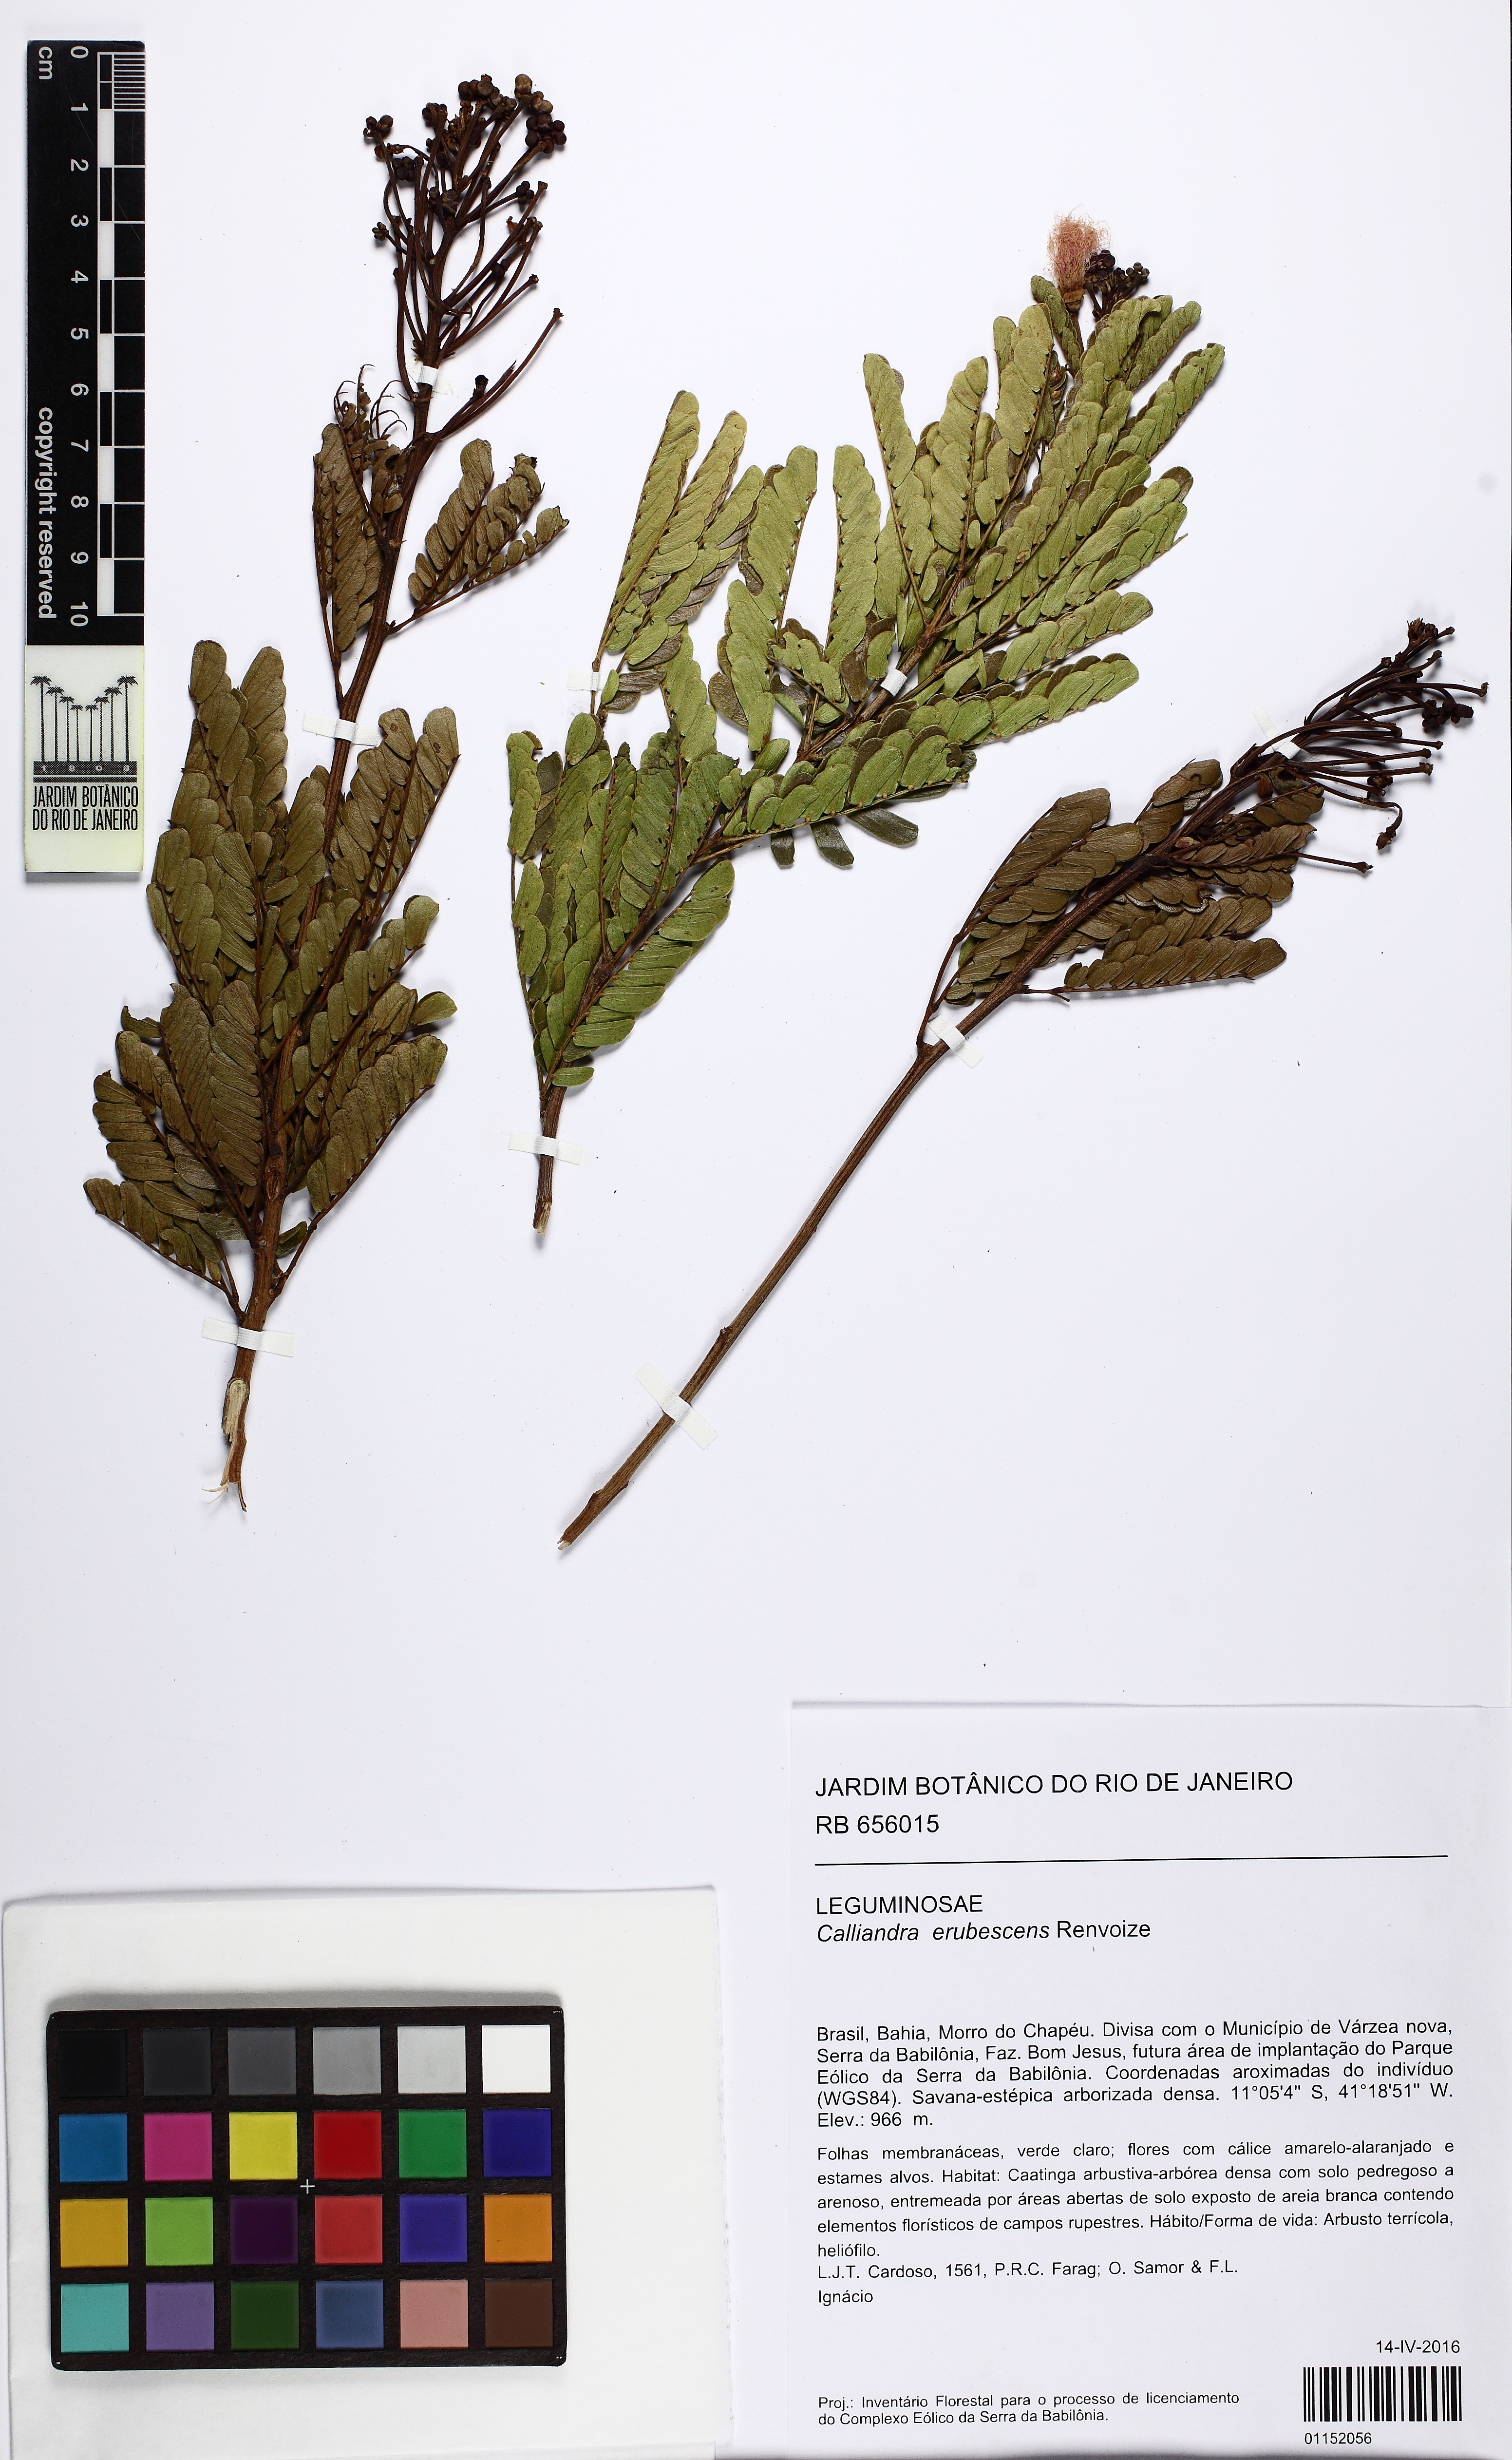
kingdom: Plantae
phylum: Tracheophyta
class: Magnoliopsida
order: Fabales
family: Fabaceae
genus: Calliandra
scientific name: Calliandra erubescens
